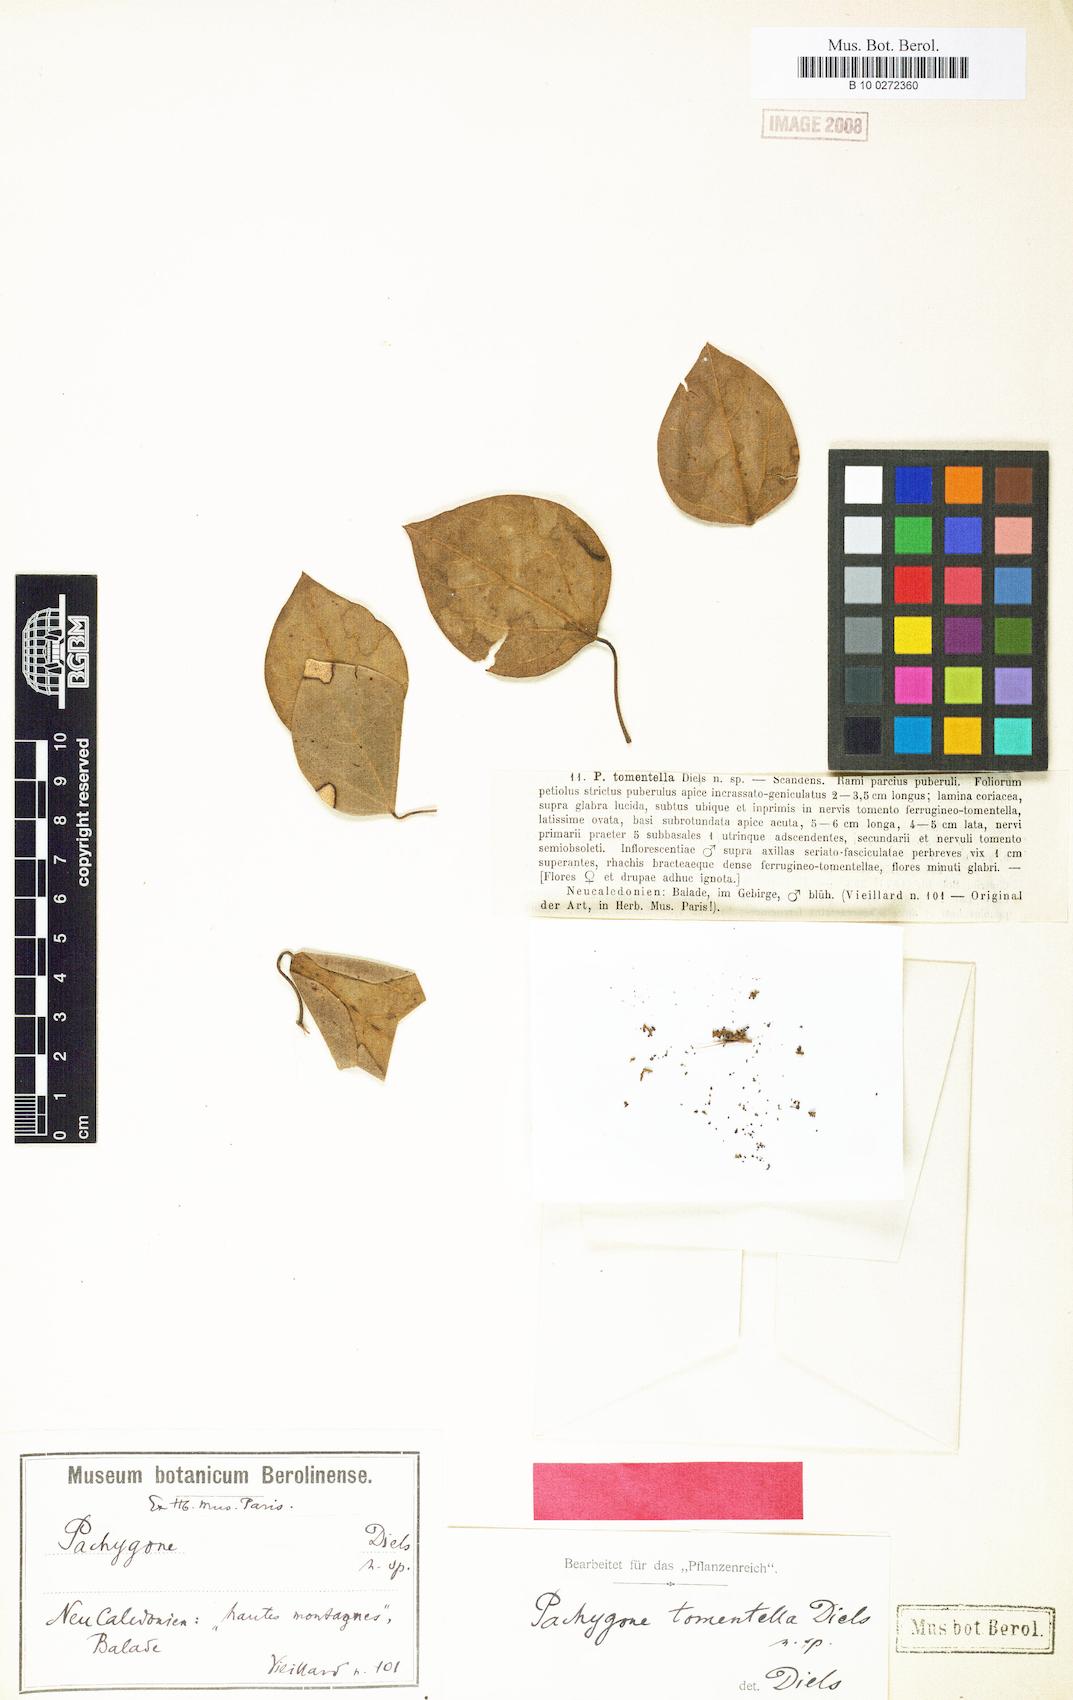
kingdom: Plantae
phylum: Tracheophyta
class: Magnoliopsida
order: Ranunculales
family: Menispermaceae
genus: Pachygone
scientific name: Pachygone tomentella
